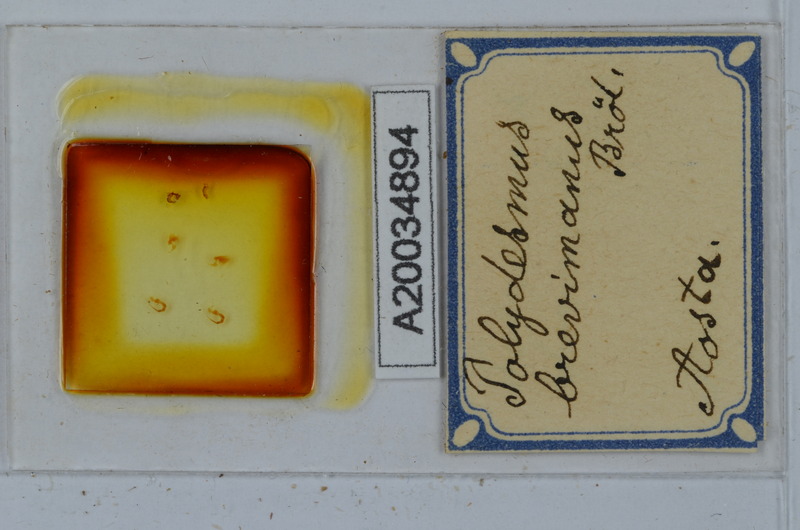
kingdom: Animalia
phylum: Arthropoda
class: Diplopoda
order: Polydesmida
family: Polydesmidae
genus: Polydesmus
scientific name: Polydesmus brevimanus
